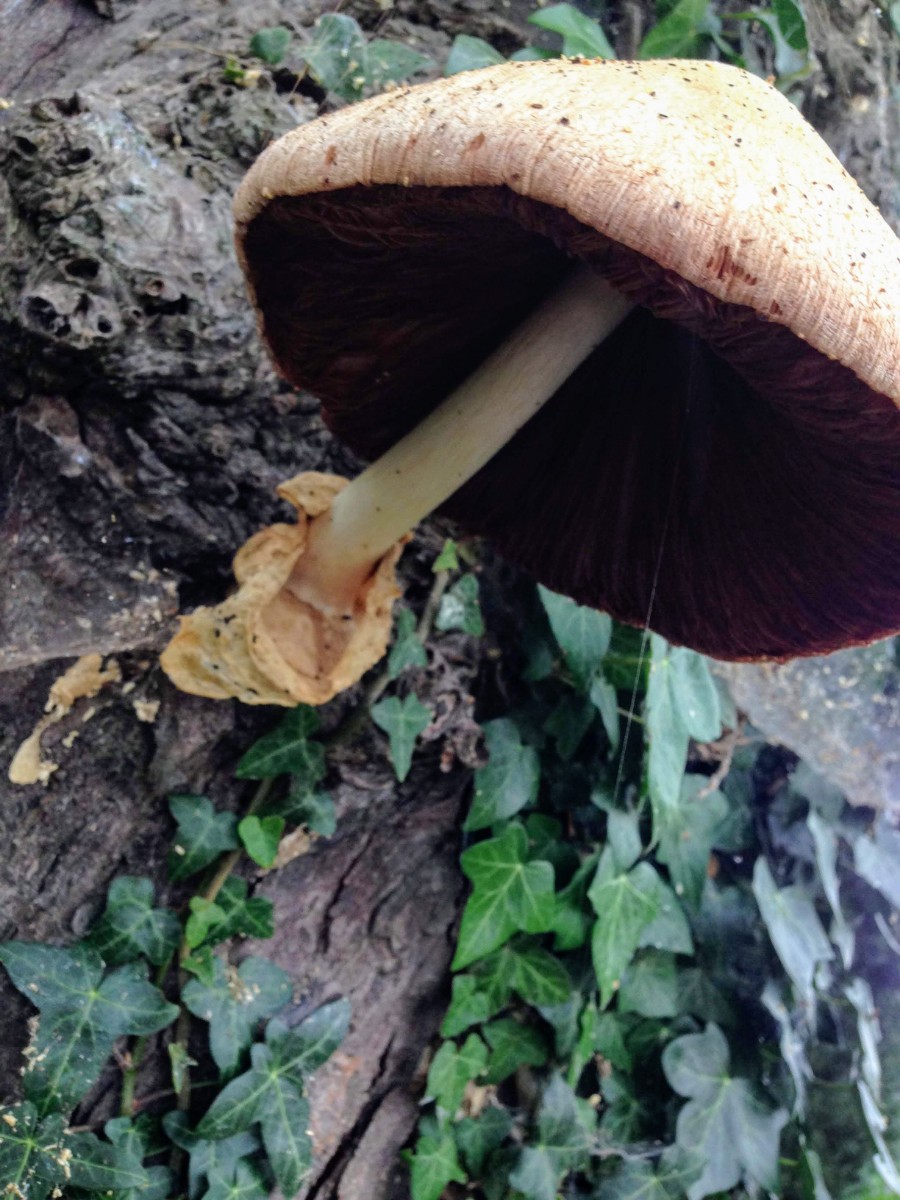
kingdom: Fungi
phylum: Basidiomycota
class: Agaricomycetes
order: Agaricales
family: Pluteaceae
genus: Volvariella
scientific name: Volvariella bombycina
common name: silkehåret posesvamp
